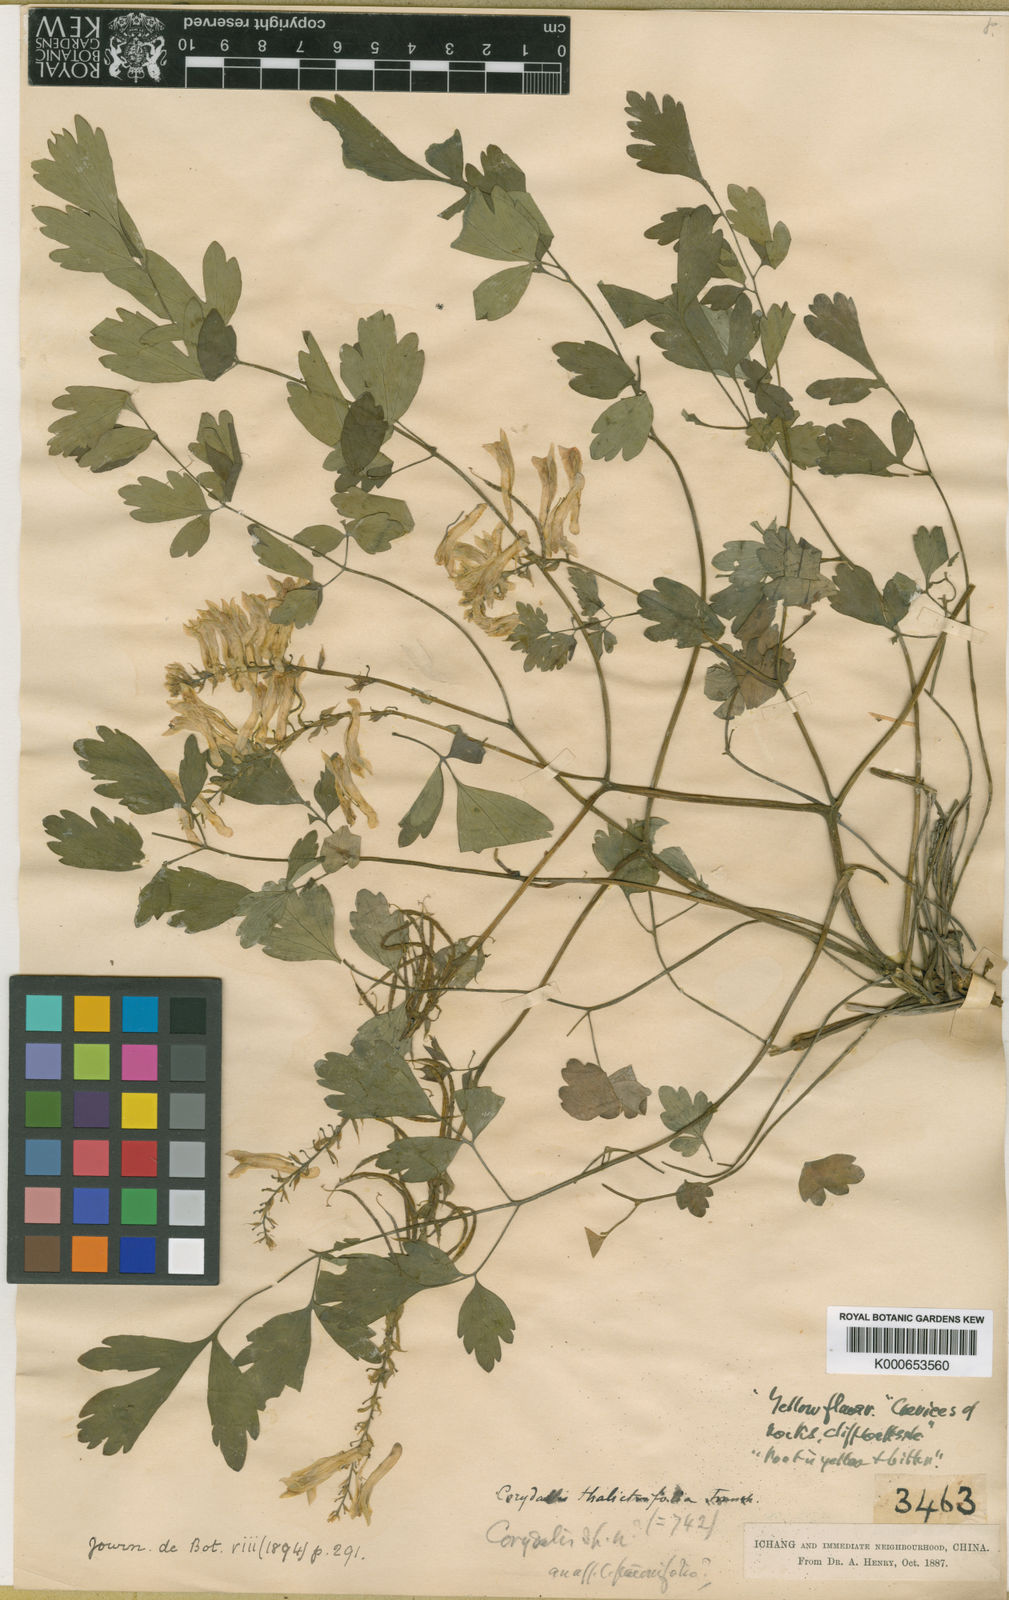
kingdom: Plantae
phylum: Tracheophyta
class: Magnoliopsida
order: Ranunculales
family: Papaveraceae
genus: Corydalis
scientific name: Corydalis saxicola
